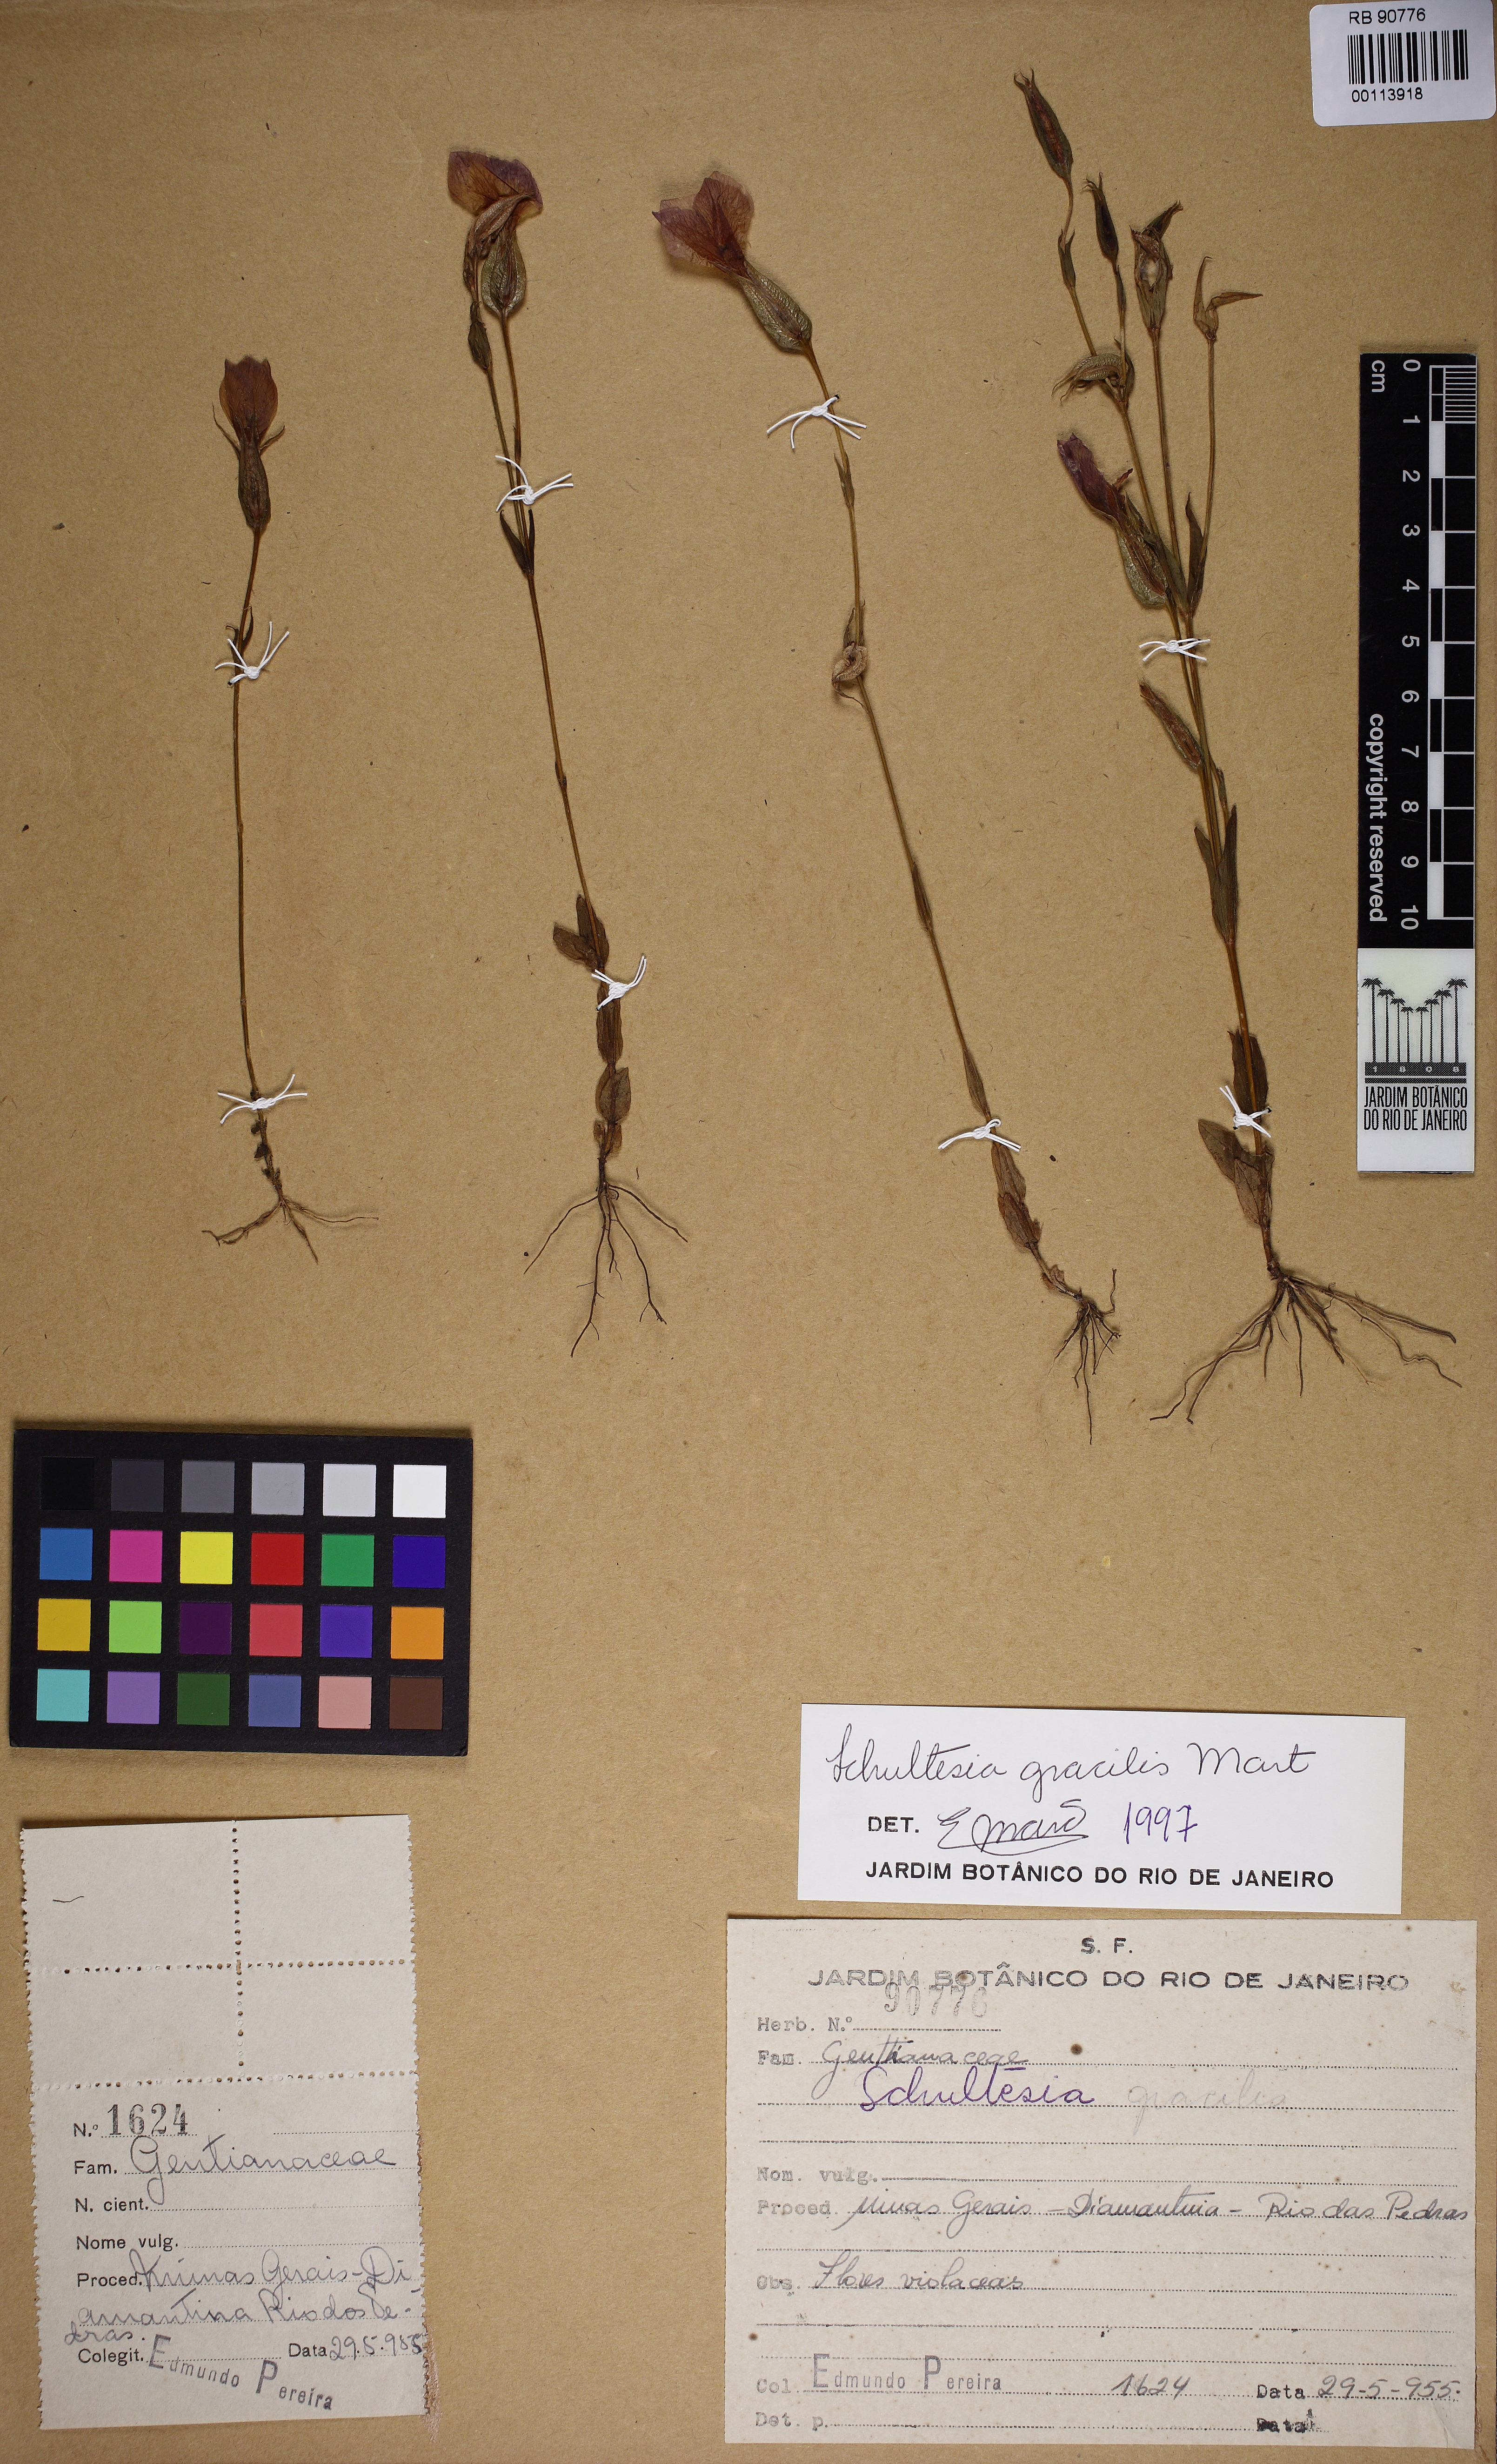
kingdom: Plantae
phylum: Tracheophyta
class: Magnoliopsida
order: Gentianales
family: Gentianaceae
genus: Schultesia
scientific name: Schultesia gracilis
